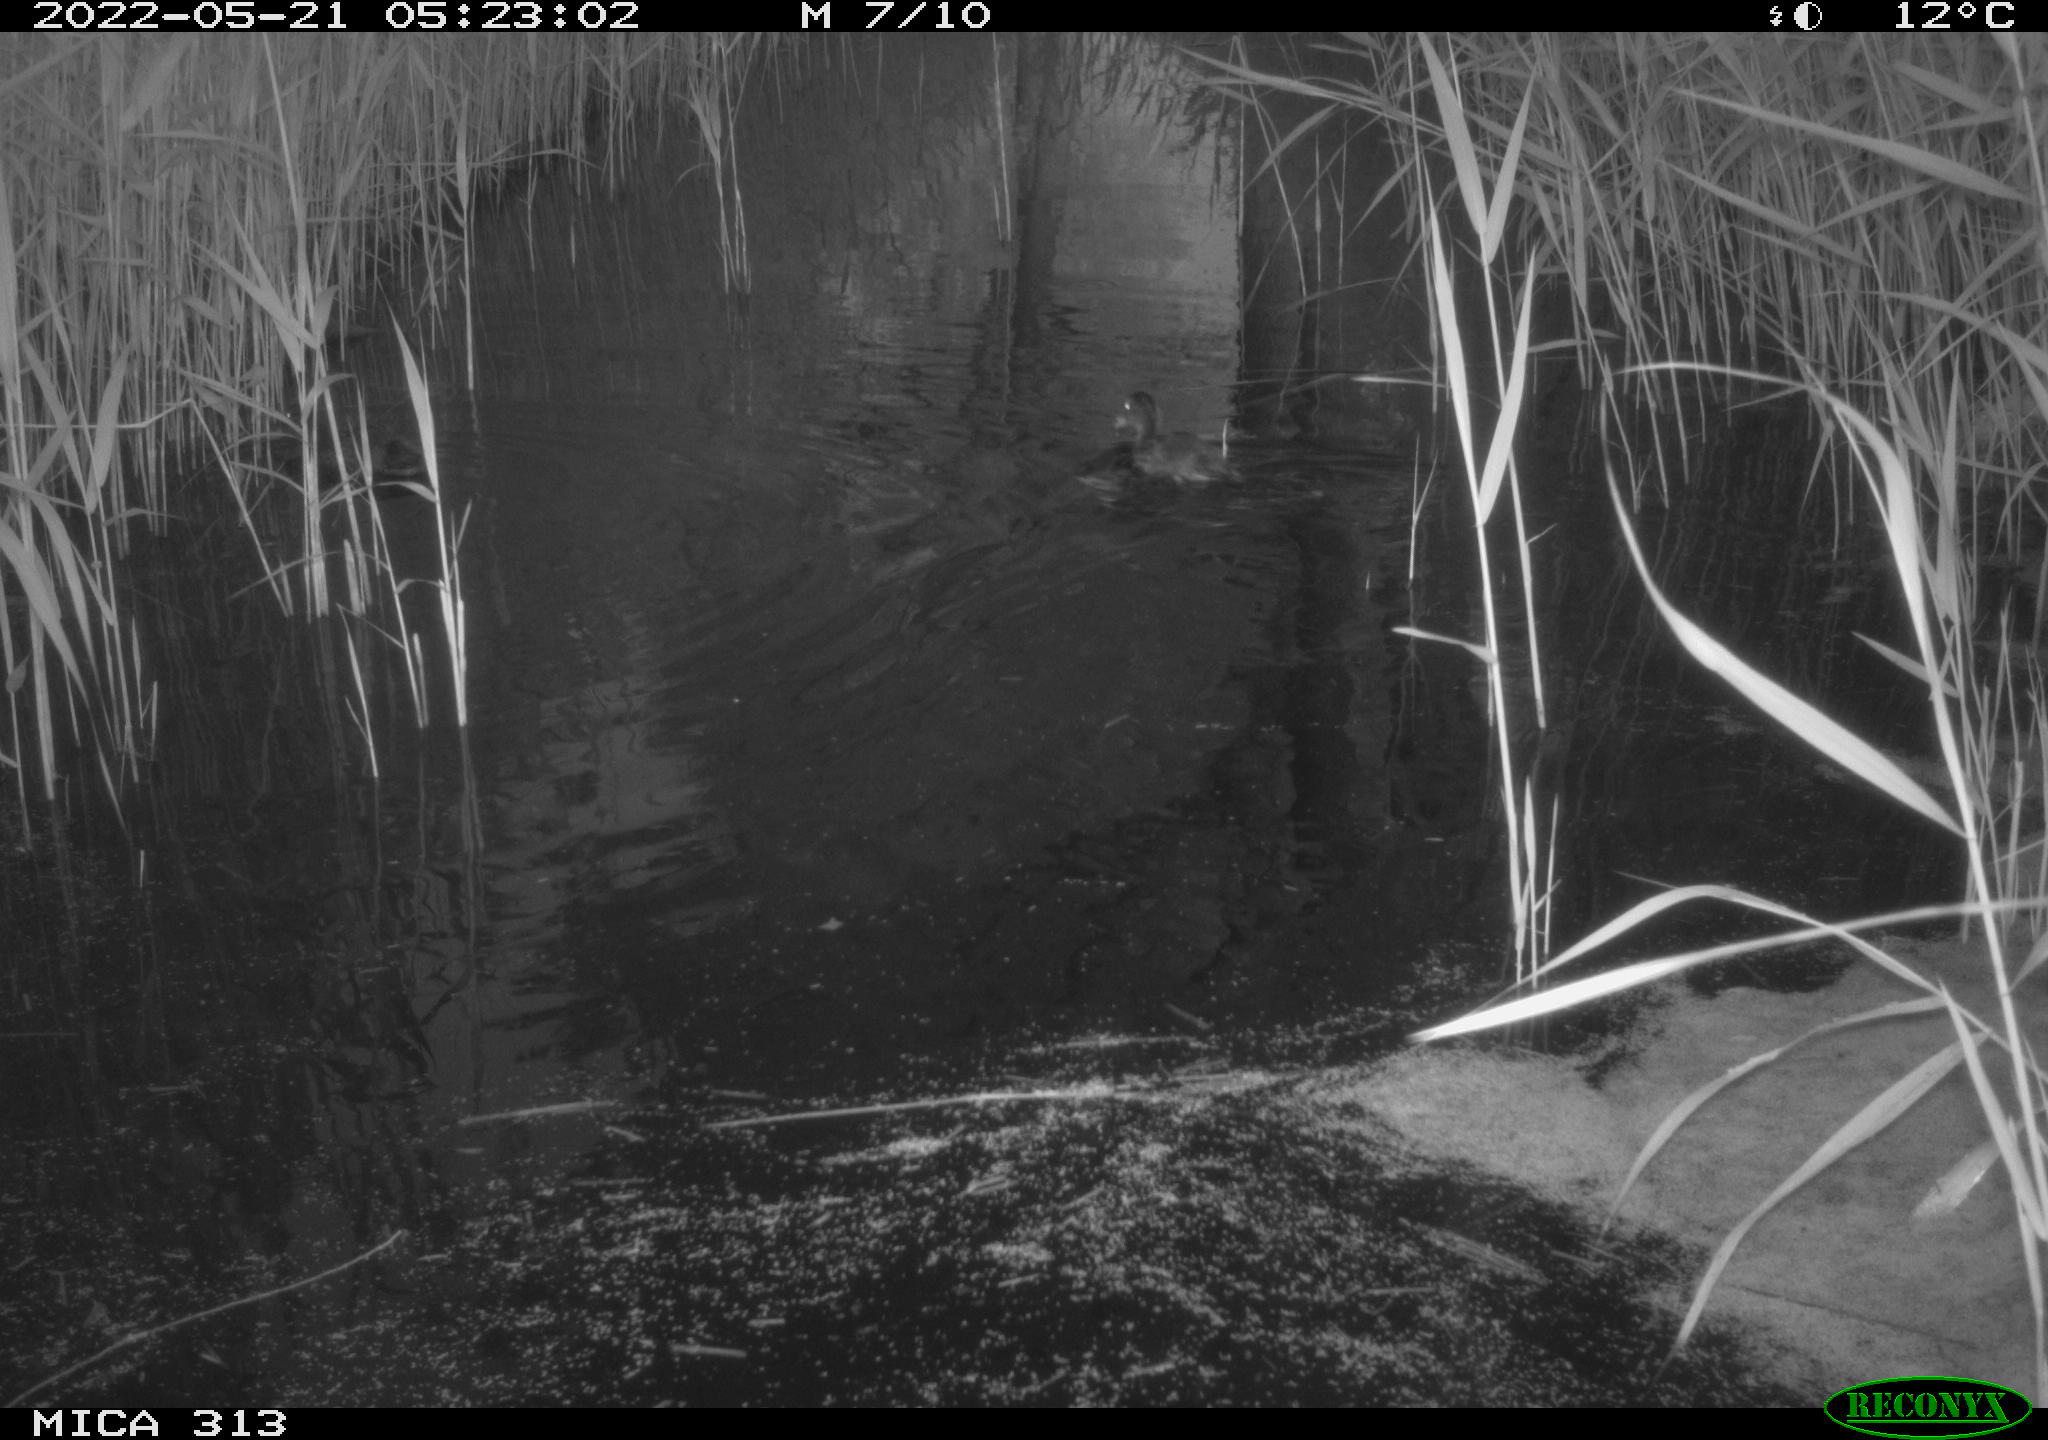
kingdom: Animalia
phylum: Chordata
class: Aves
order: Anseriformes
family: Anatidae
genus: Anas
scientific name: Anas platyrhynchos
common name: Mallard
